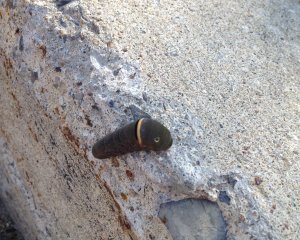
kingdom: Animalia
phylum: Arthropoda
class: Insecta
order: Lepidoptera
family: Papilionidae
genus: Pterourus
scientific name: Pterourus canadensis
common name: Canadian Tiger Swallowtail
